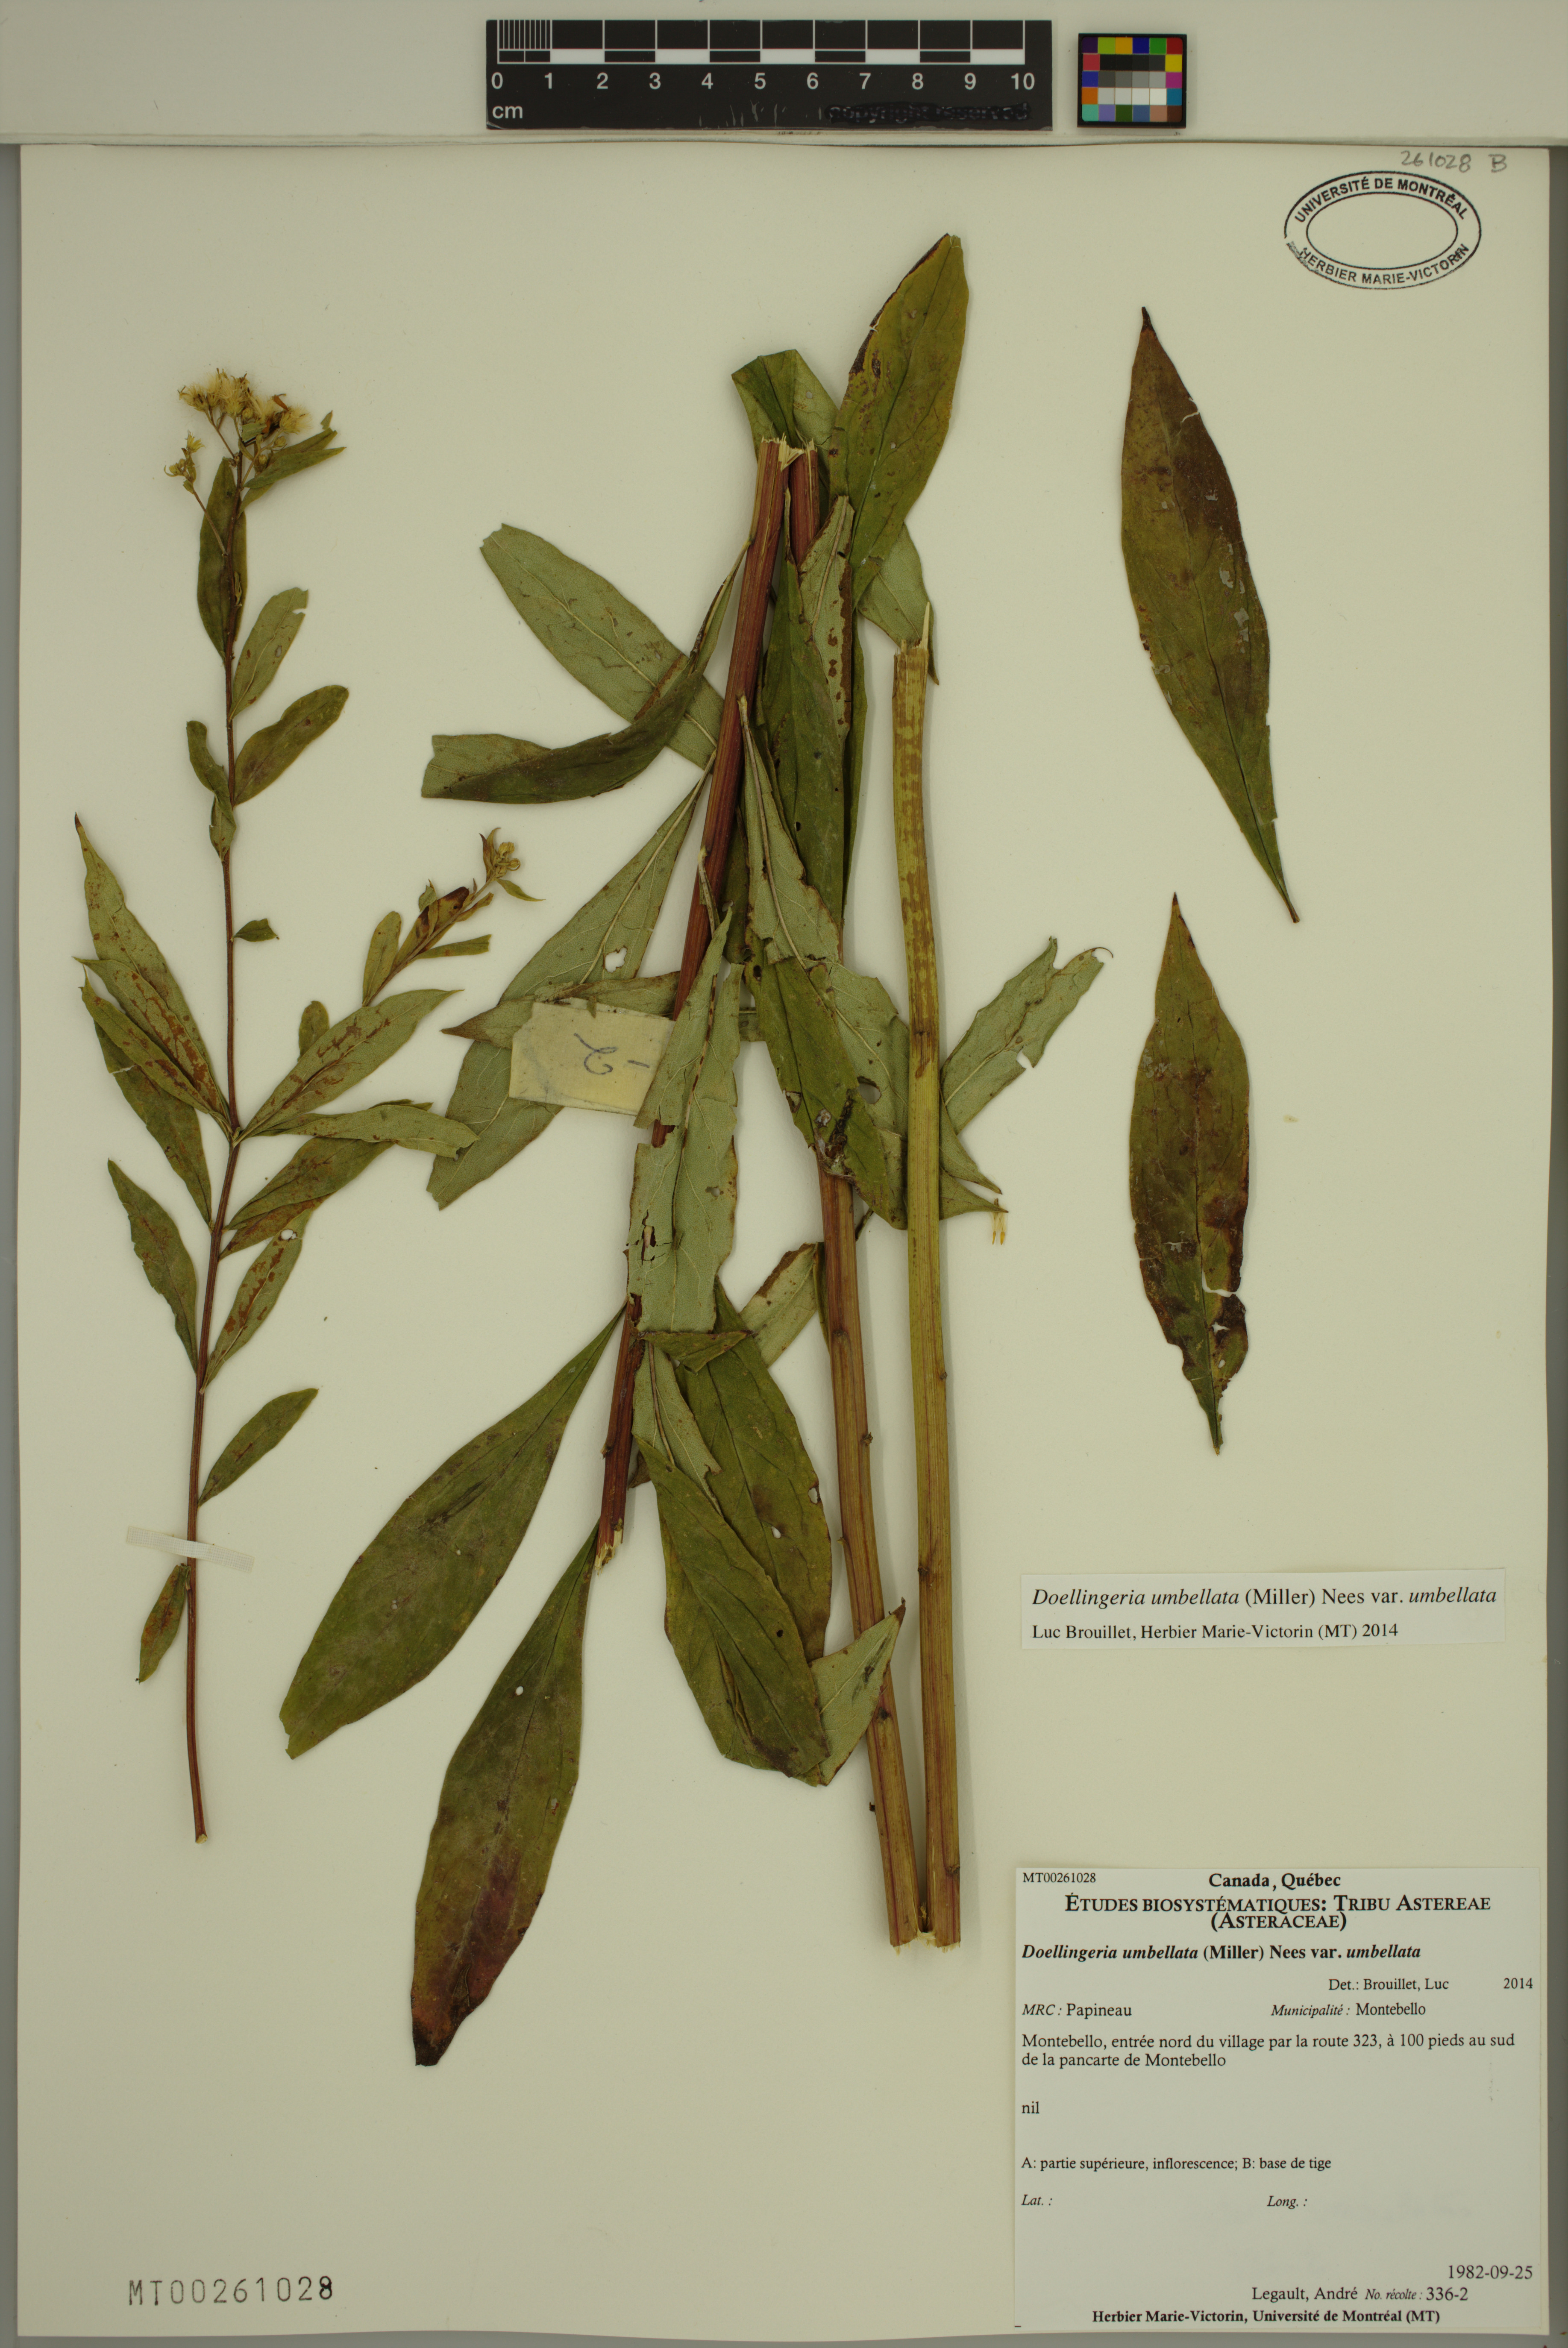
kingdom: Plantae
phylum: Tracheophyta
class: Magnoliopsida
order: Asterales
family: Asteraceae
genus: Doellingeria
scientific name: Doellingeria umbellata
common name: Flat-top white aster
